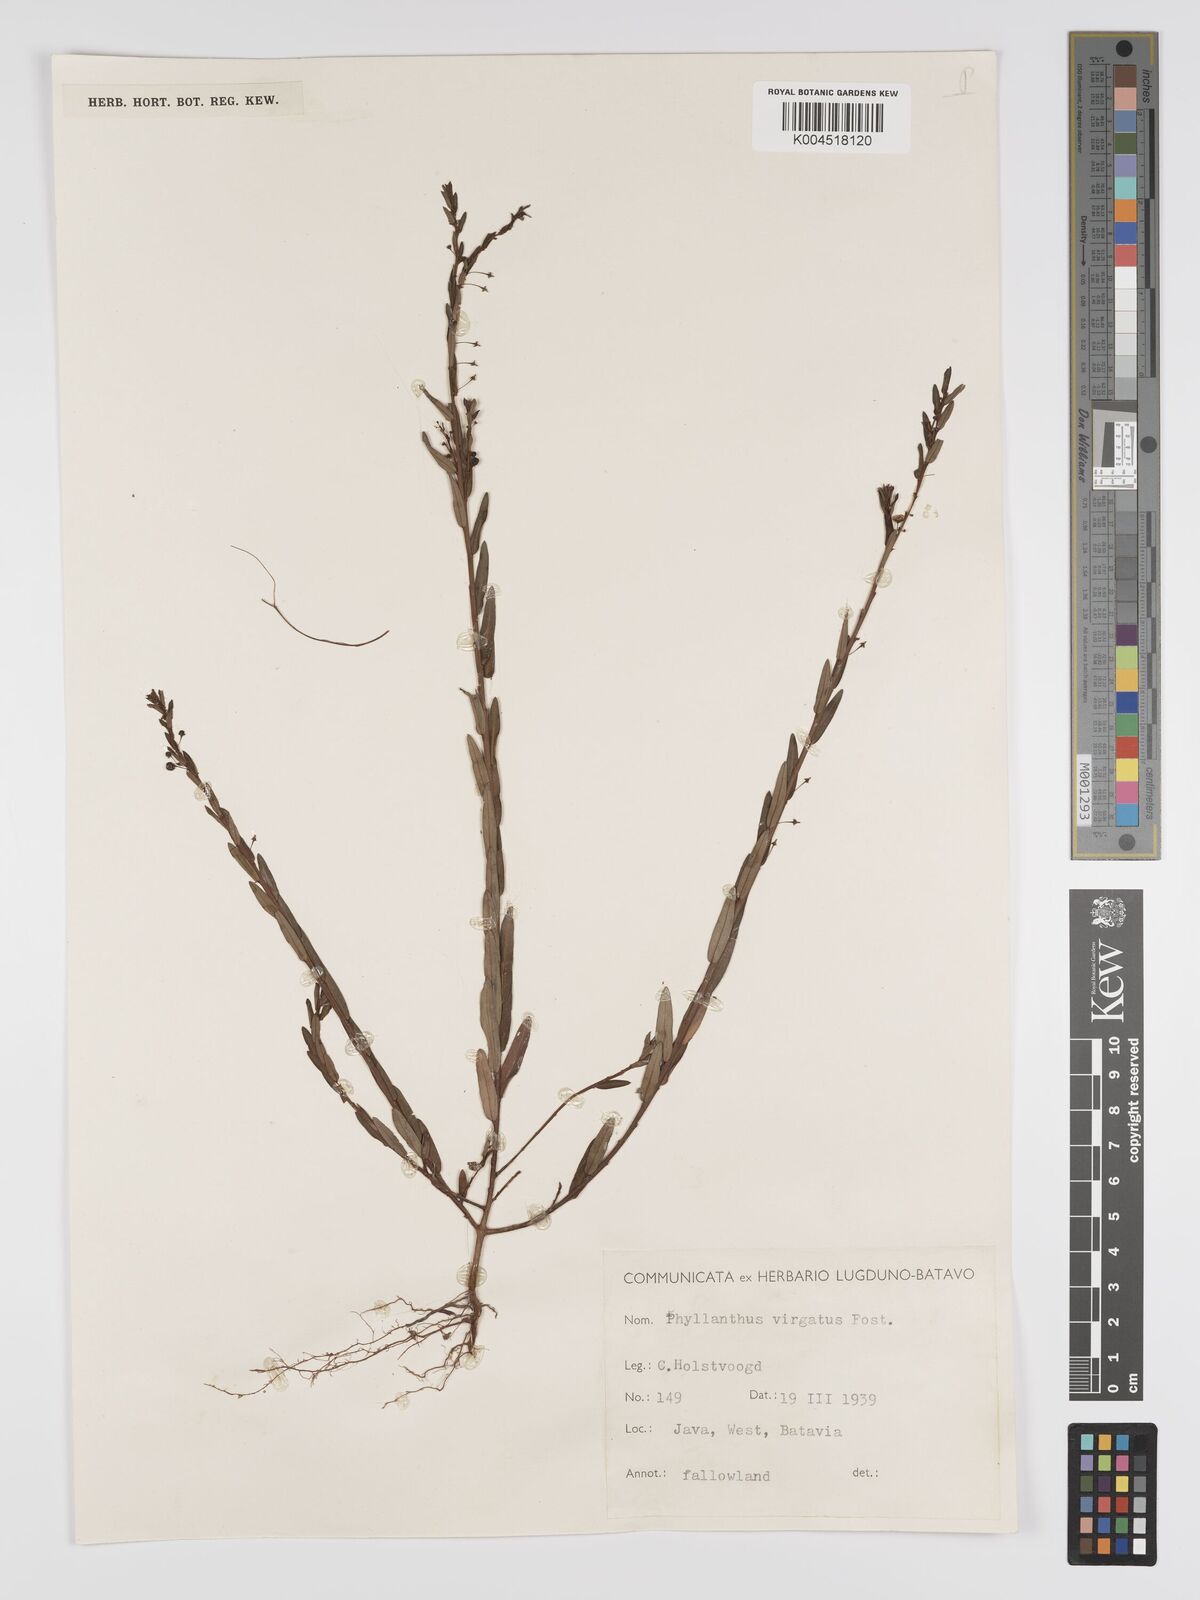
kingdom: Plantae
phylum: Tracheophyta
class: Magnoliopsida
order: Malpighiales
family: Phyllanthaceae
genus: Phyllanthus
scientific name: Phyllanthus virgatus
